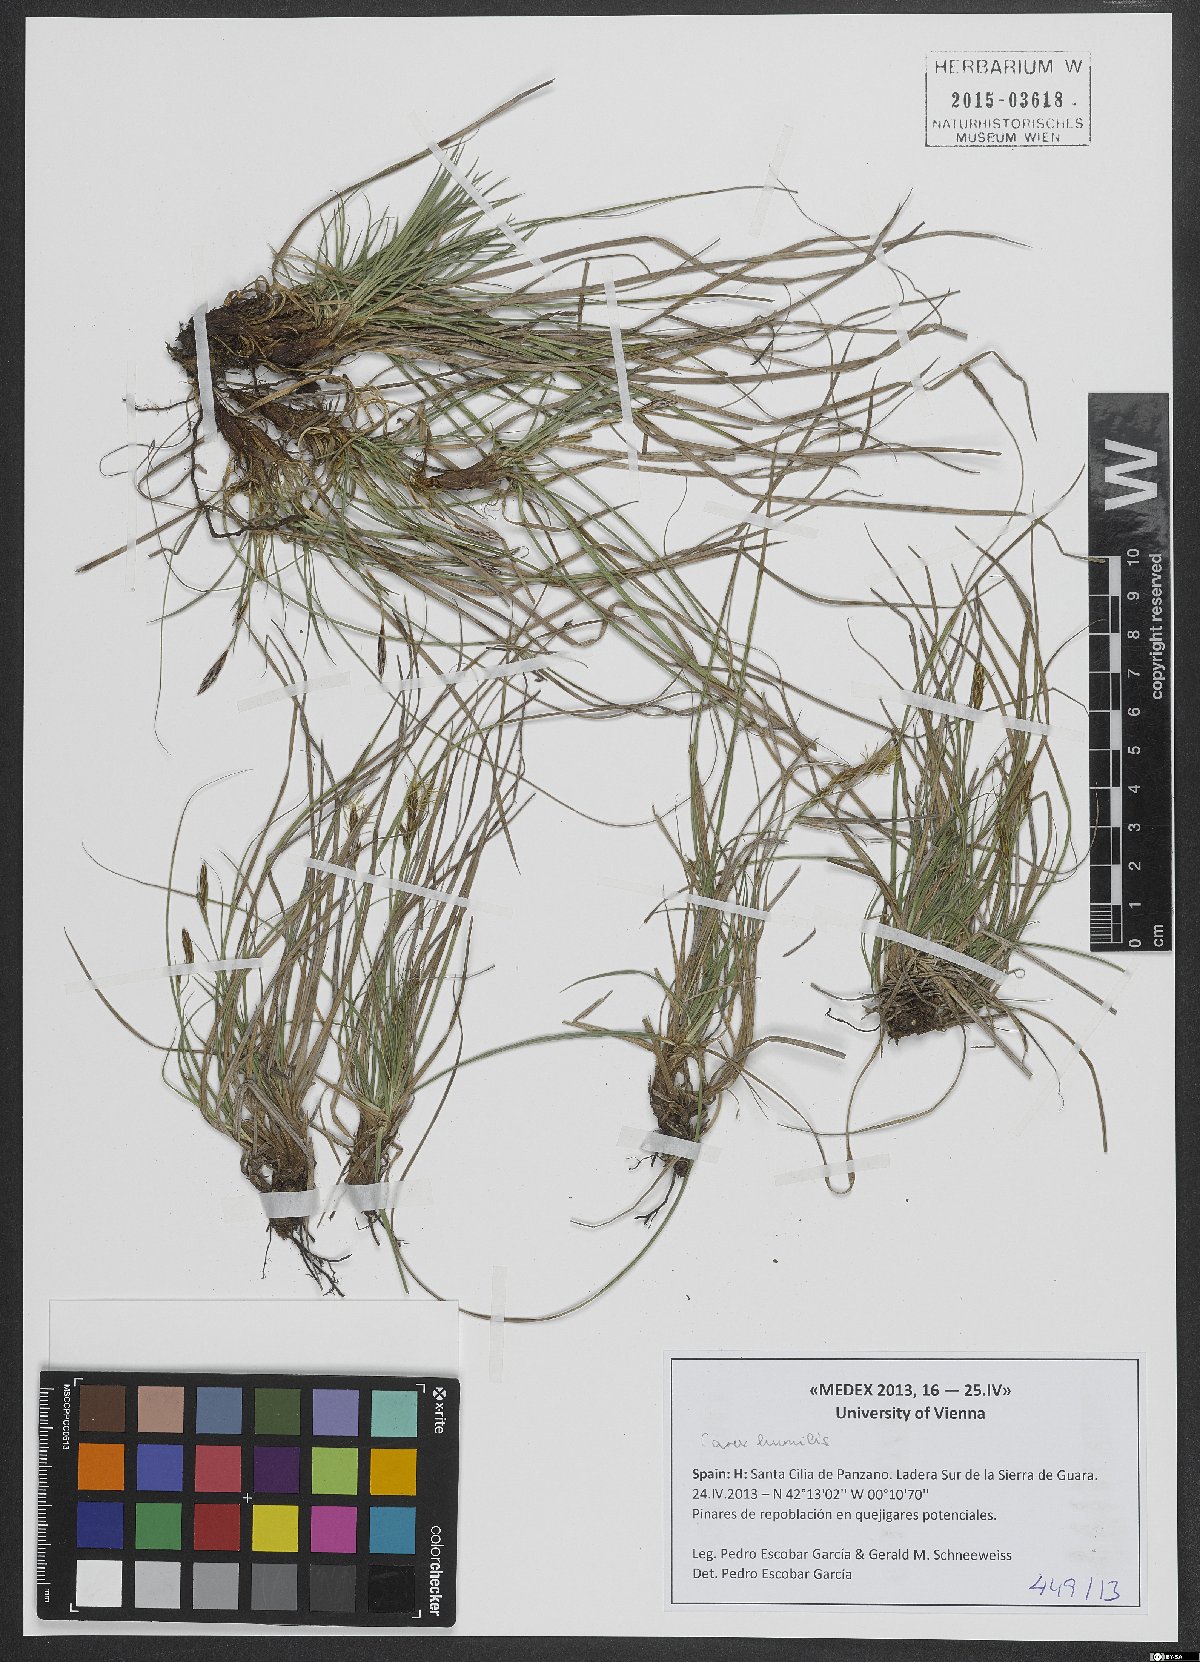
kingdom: Plantae
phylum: Tracheophyta
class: Liliopsida
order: Poales
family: Cyperaceae
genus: Carex
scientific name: Carex humilis
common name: Dwarf sedge
